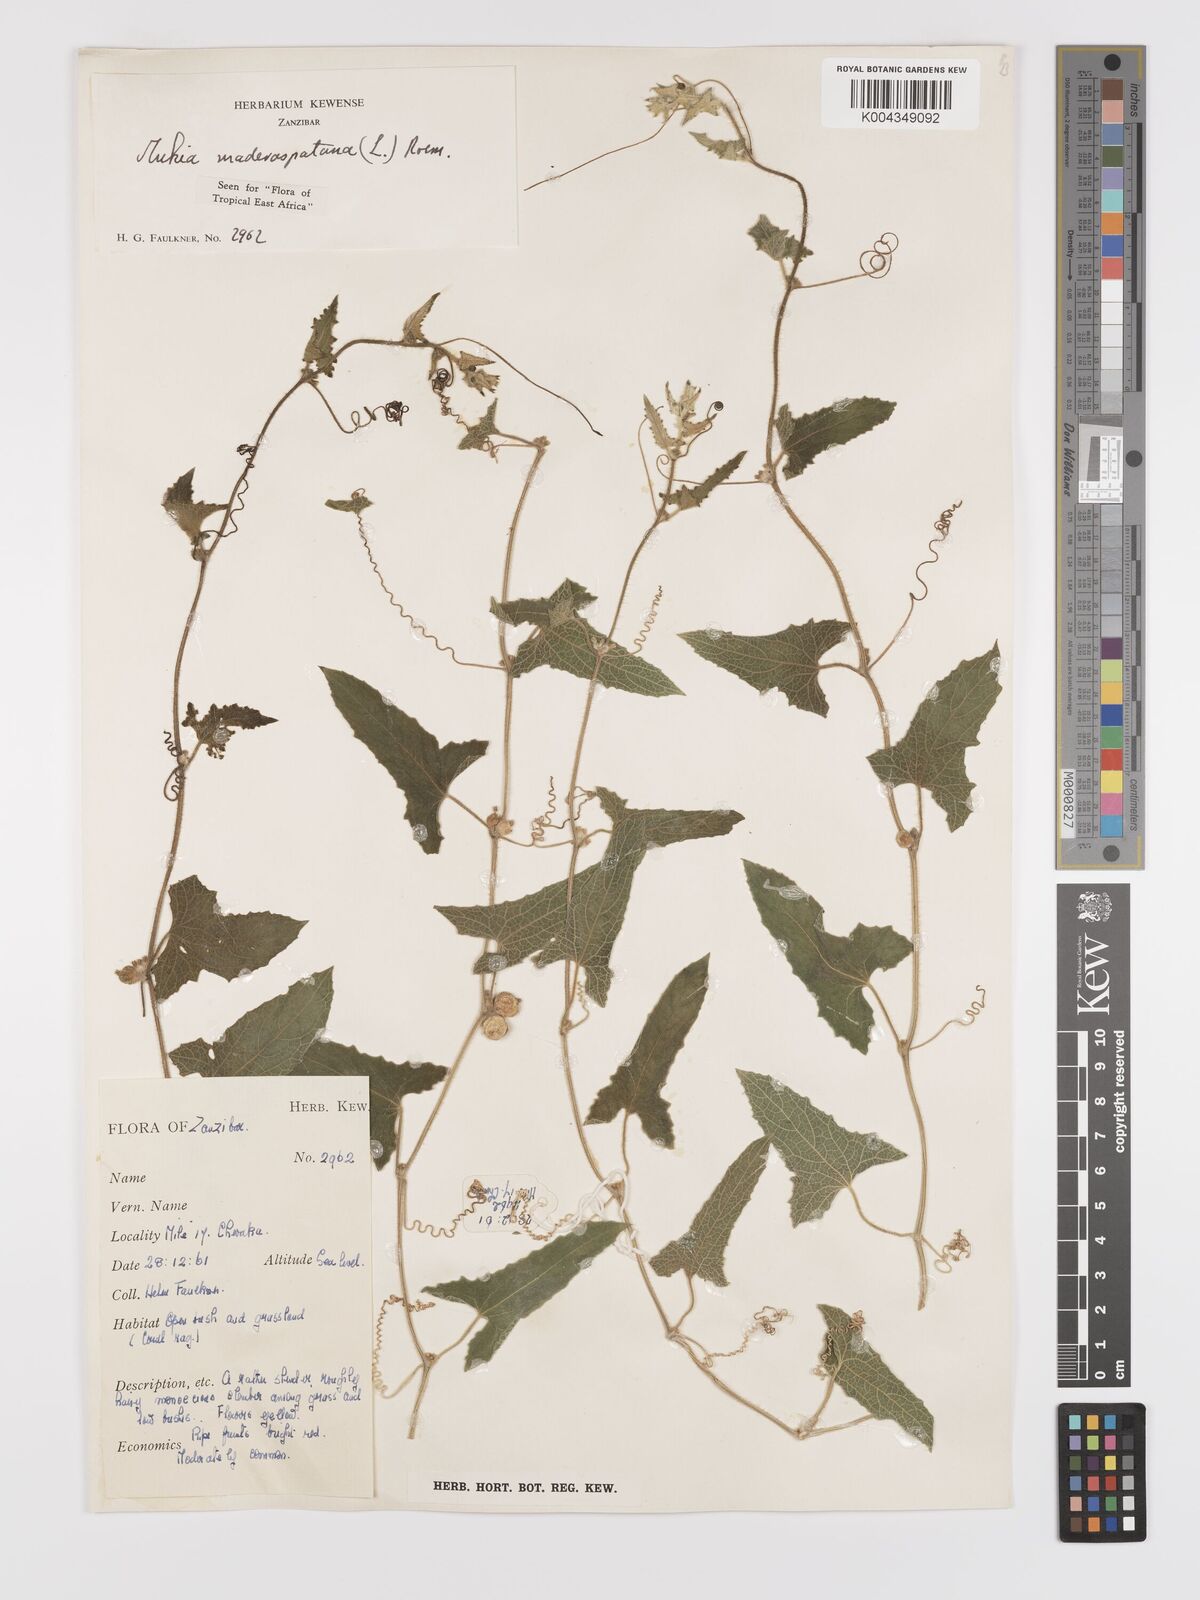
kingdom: Plantae
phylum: Tracheophyta
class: Magnoliopsida
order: Cucurbitales
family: Cucurbitaceae
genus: Cucumis
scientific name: Cucumis maderaspatanus
